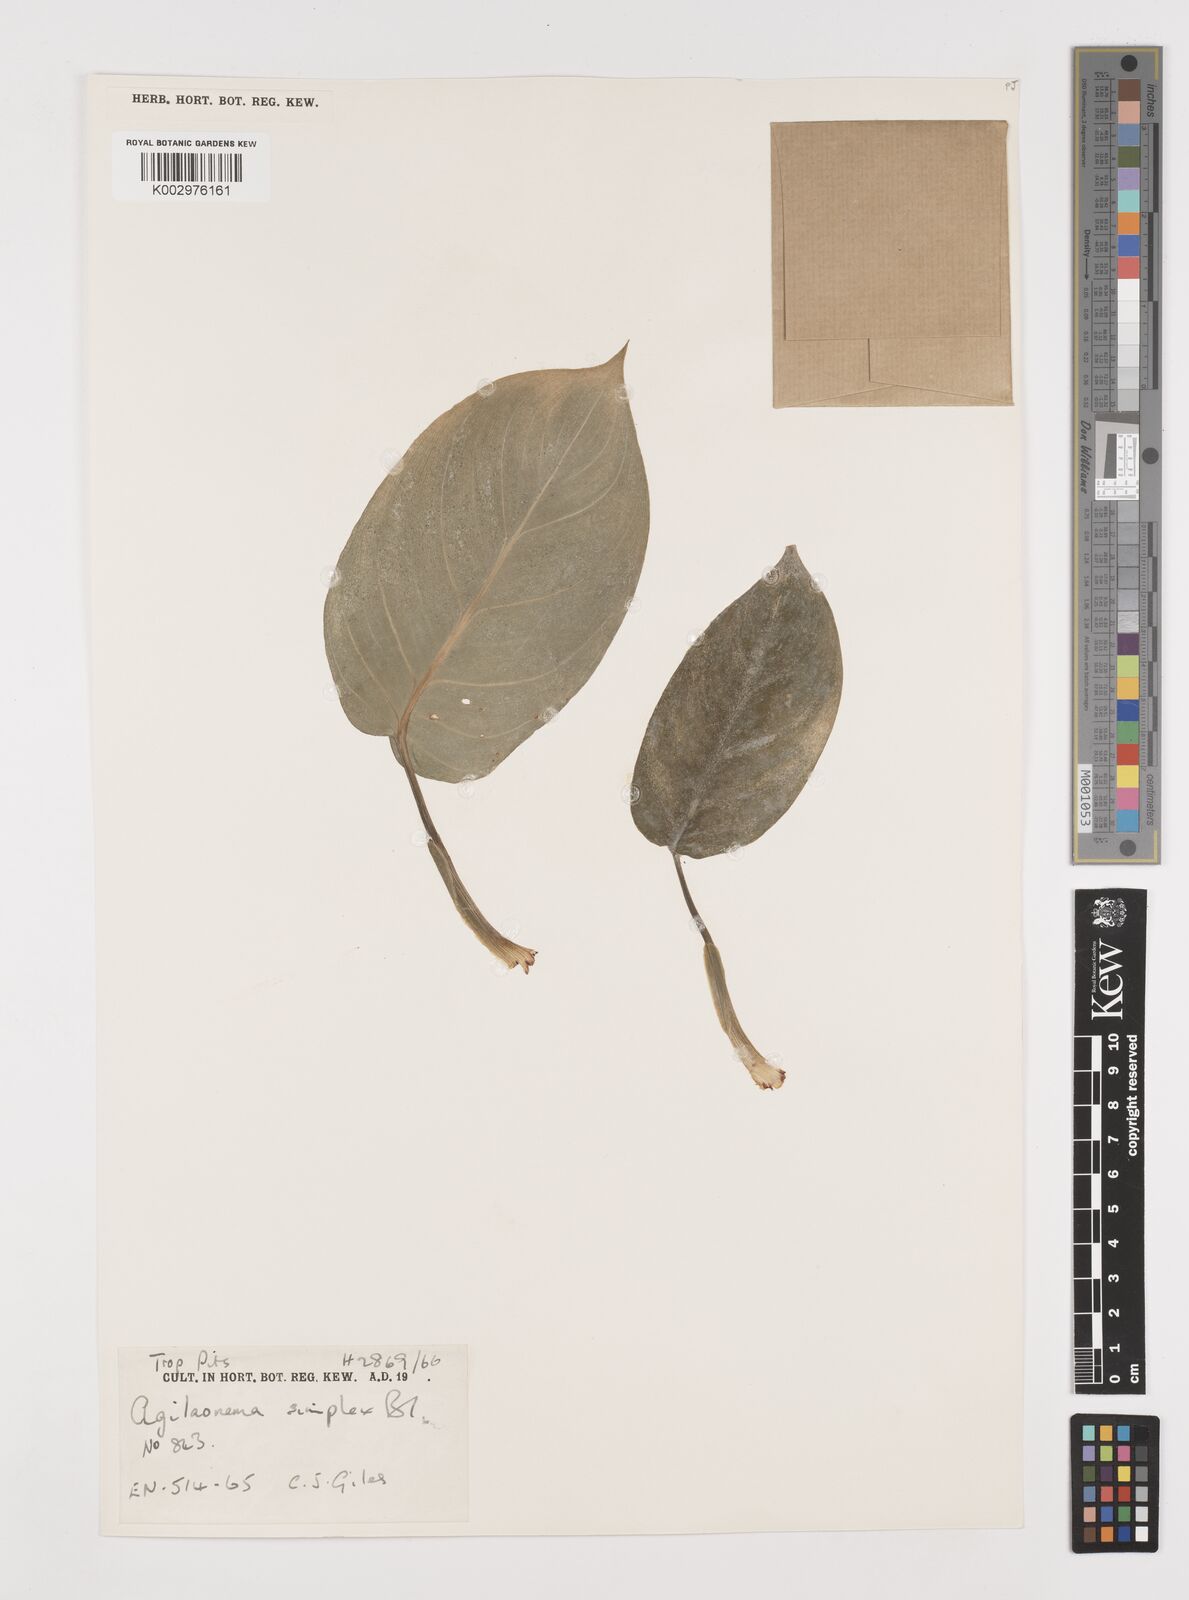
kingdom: Plantae
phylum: Tracheophyta
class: Liliopsida
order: Alismatales
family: Araceae
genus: Aglaonema
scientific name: Aglaonema simplex
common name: Malayan-sword
